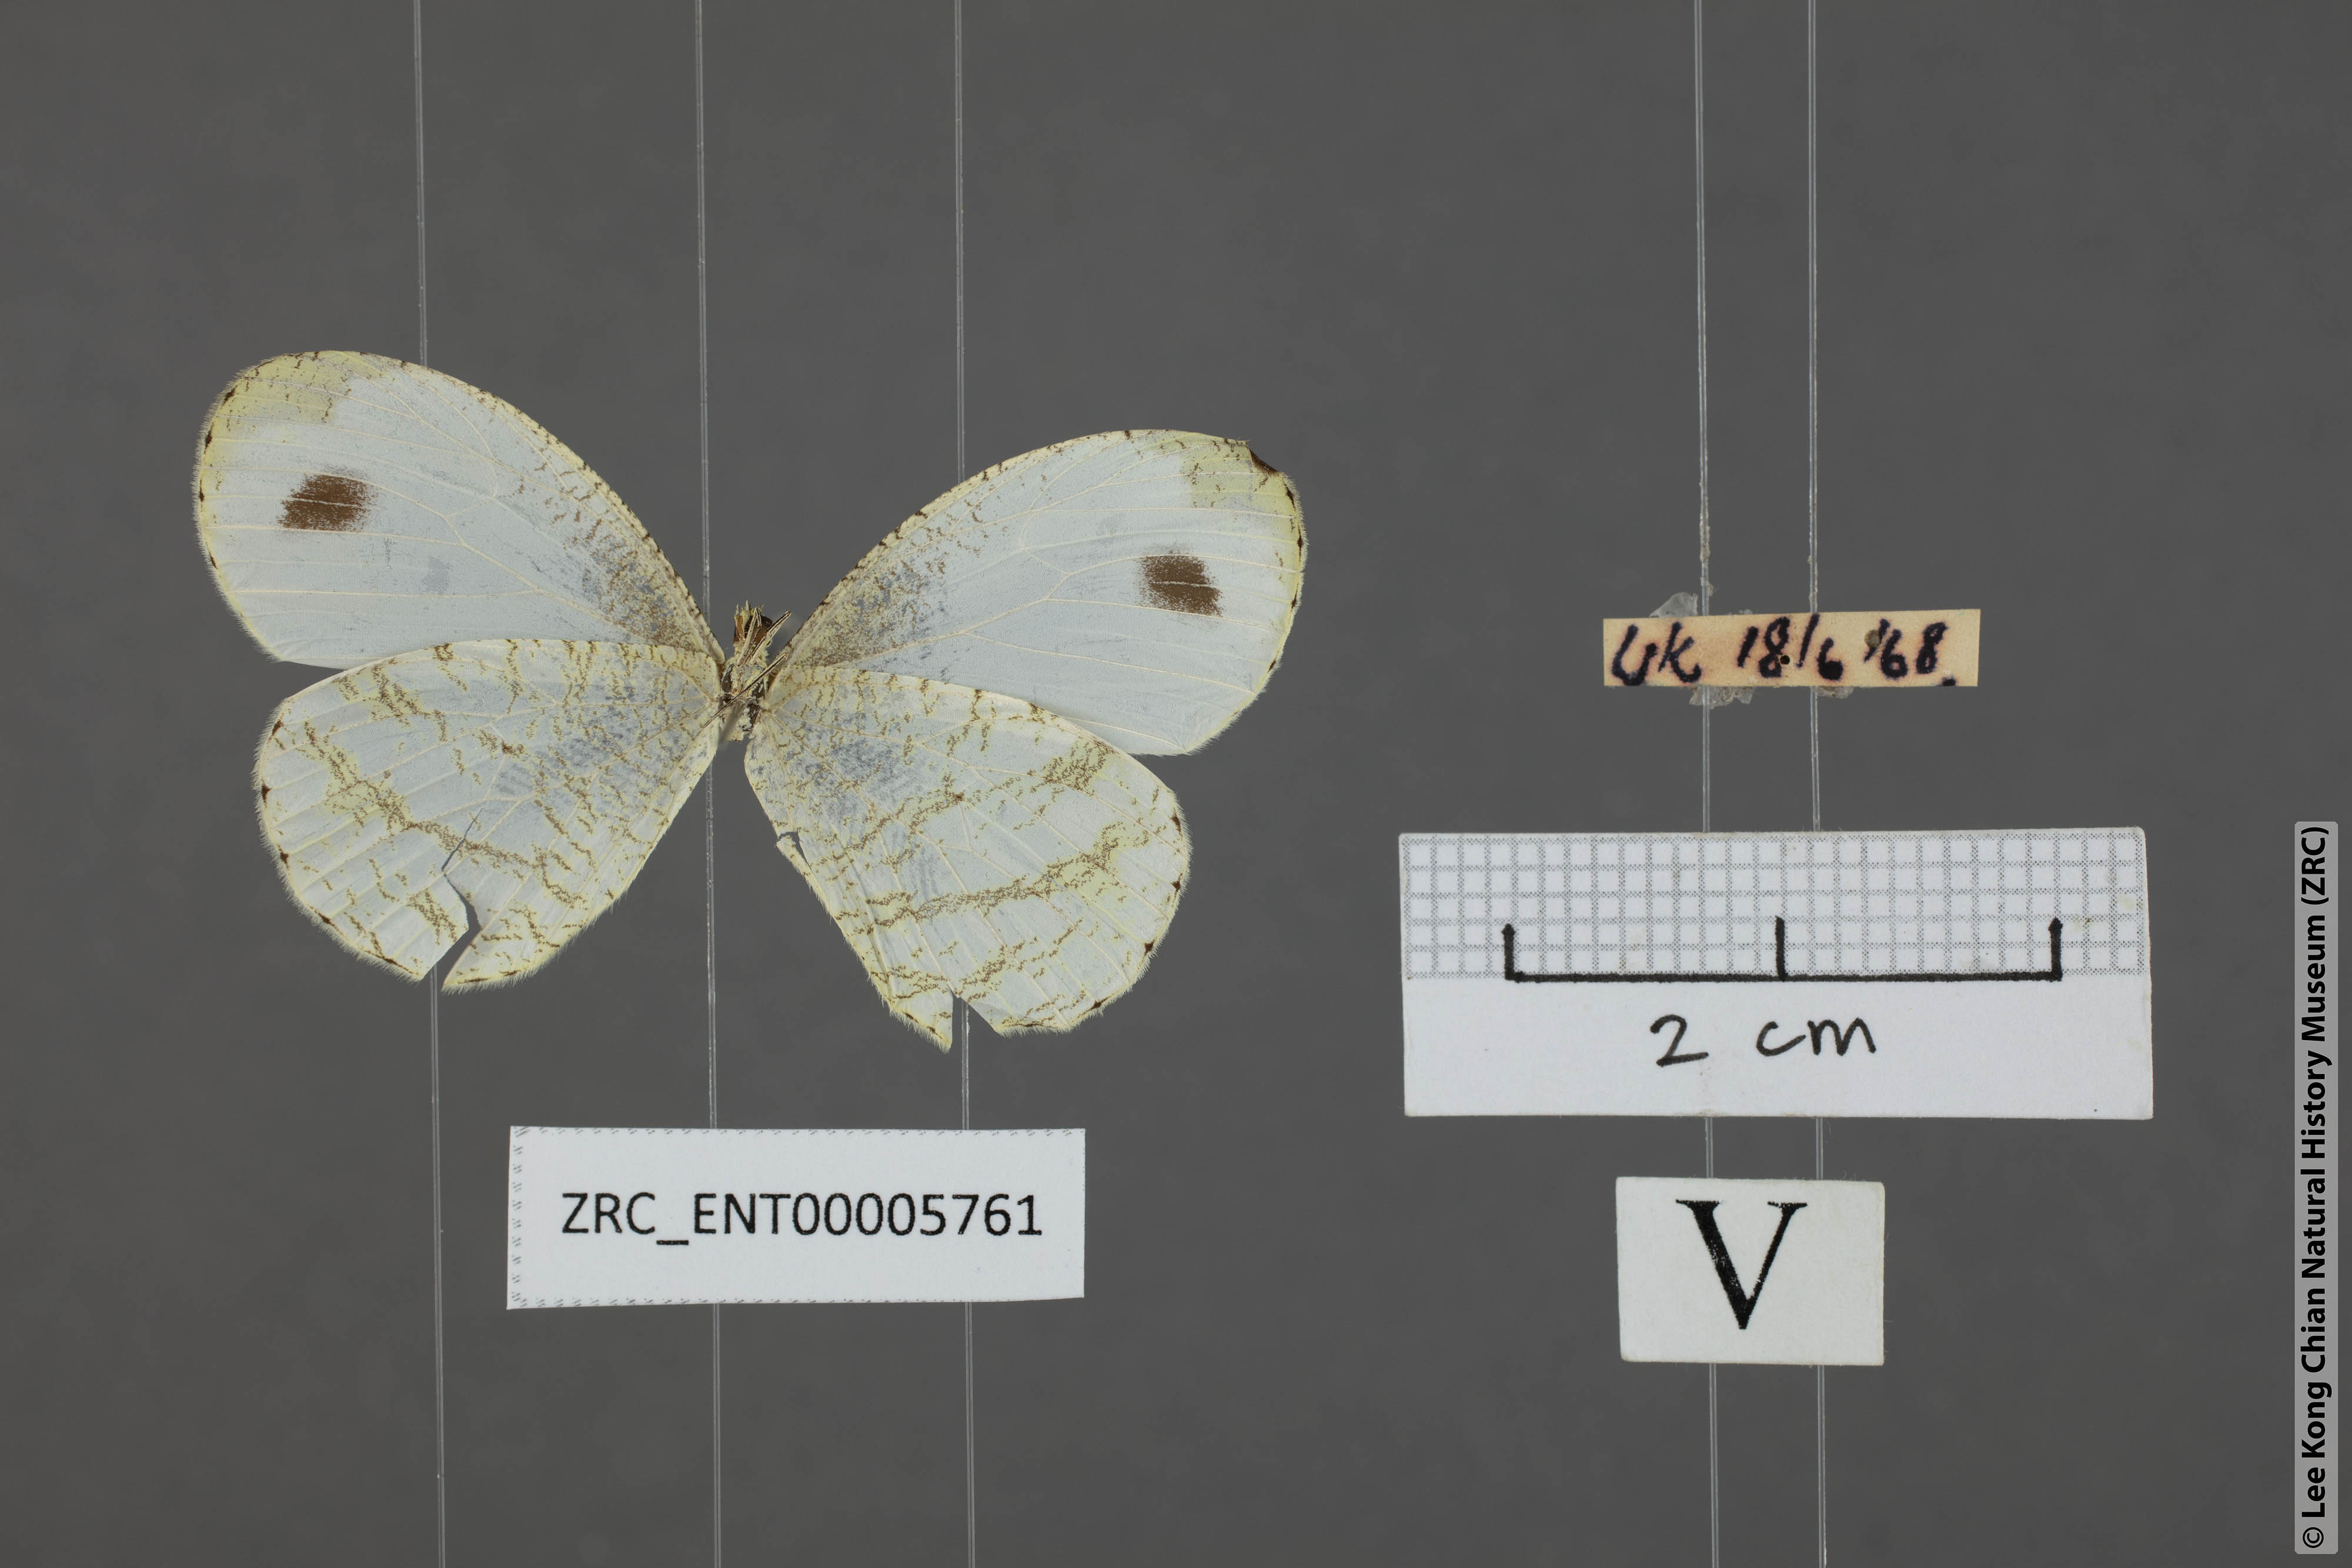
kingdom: Animalia
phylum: Arthropoda
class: Insecta
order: Lepidoptera
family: Pieridae
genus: Leptosia
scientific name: Leptosia nina
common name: Psyche
